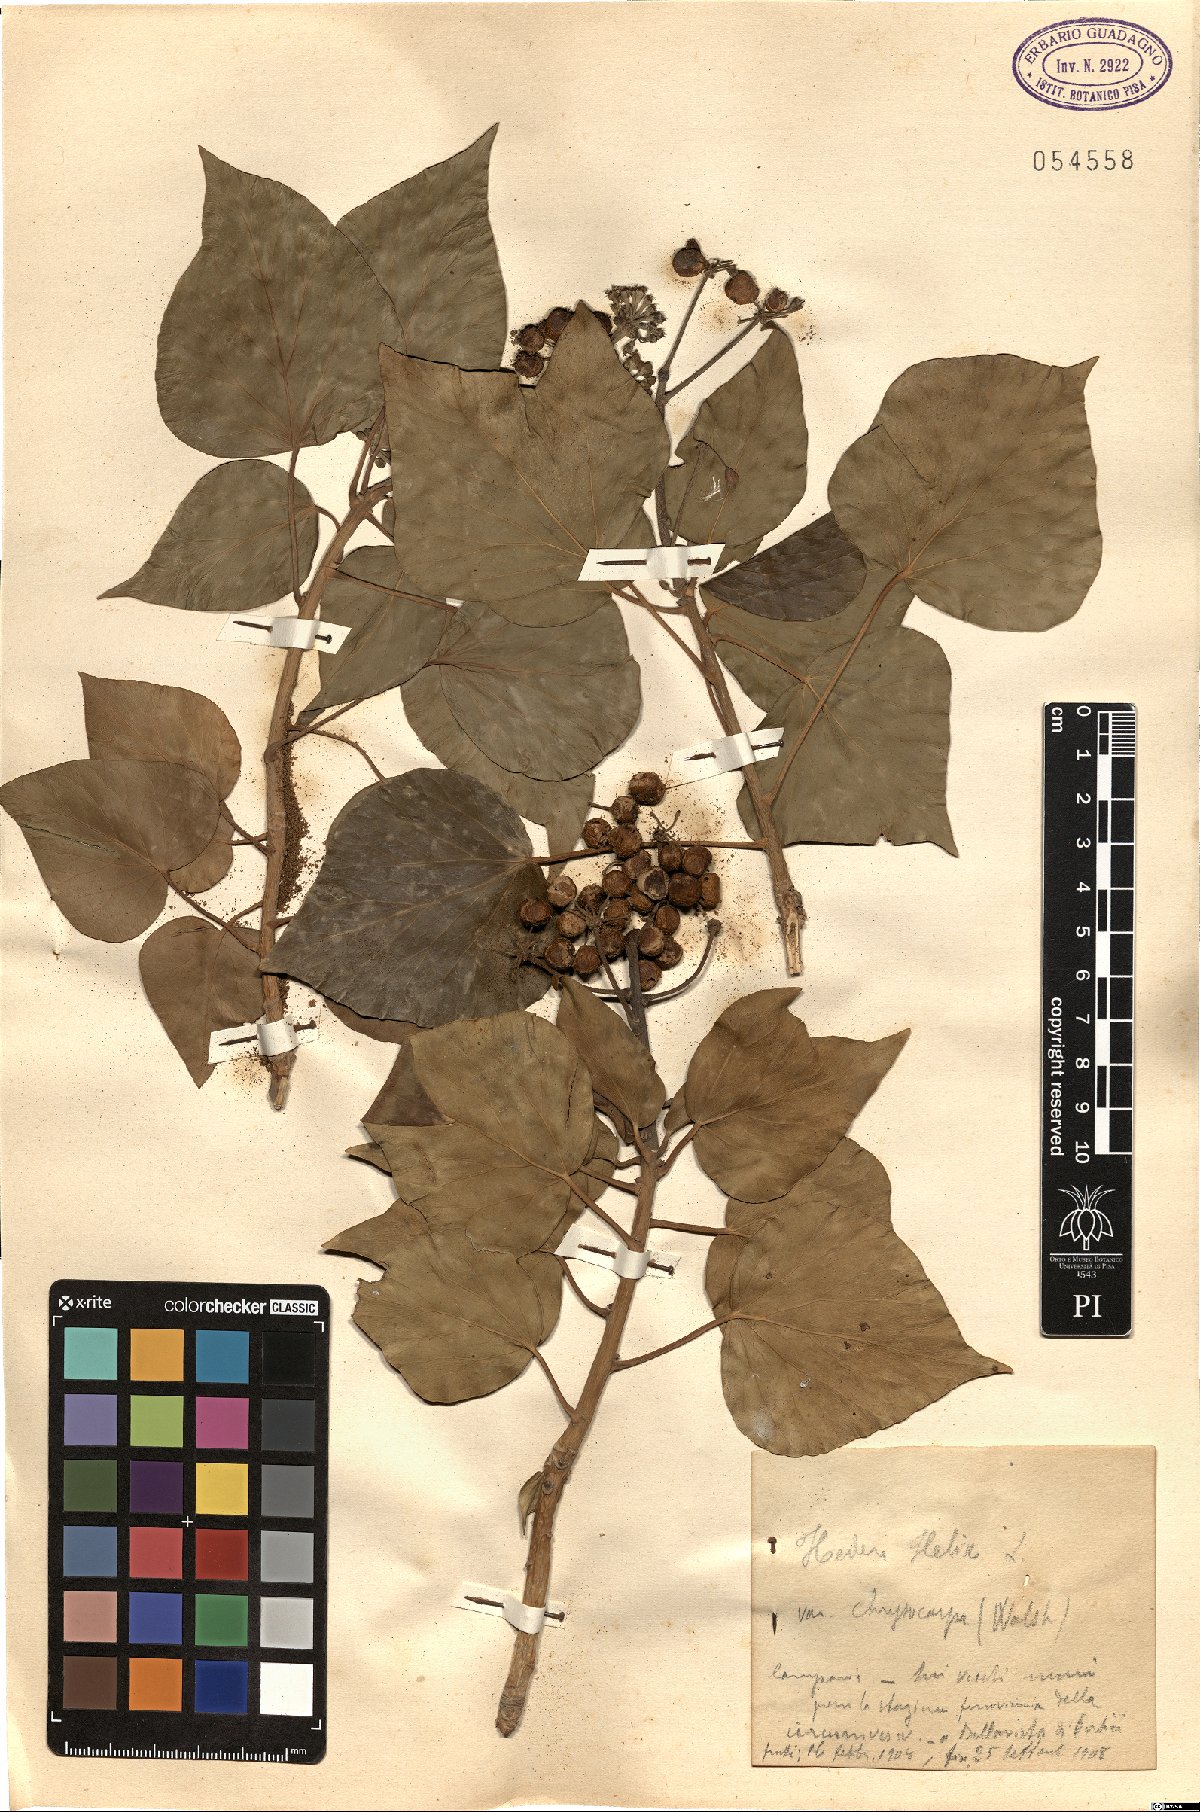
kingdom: Plantae
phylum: Tracheophyta
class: Magnoliopsida
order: Apiales
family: Araliaceae
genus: Hedera
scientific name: Hedera helix
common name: Ivy
